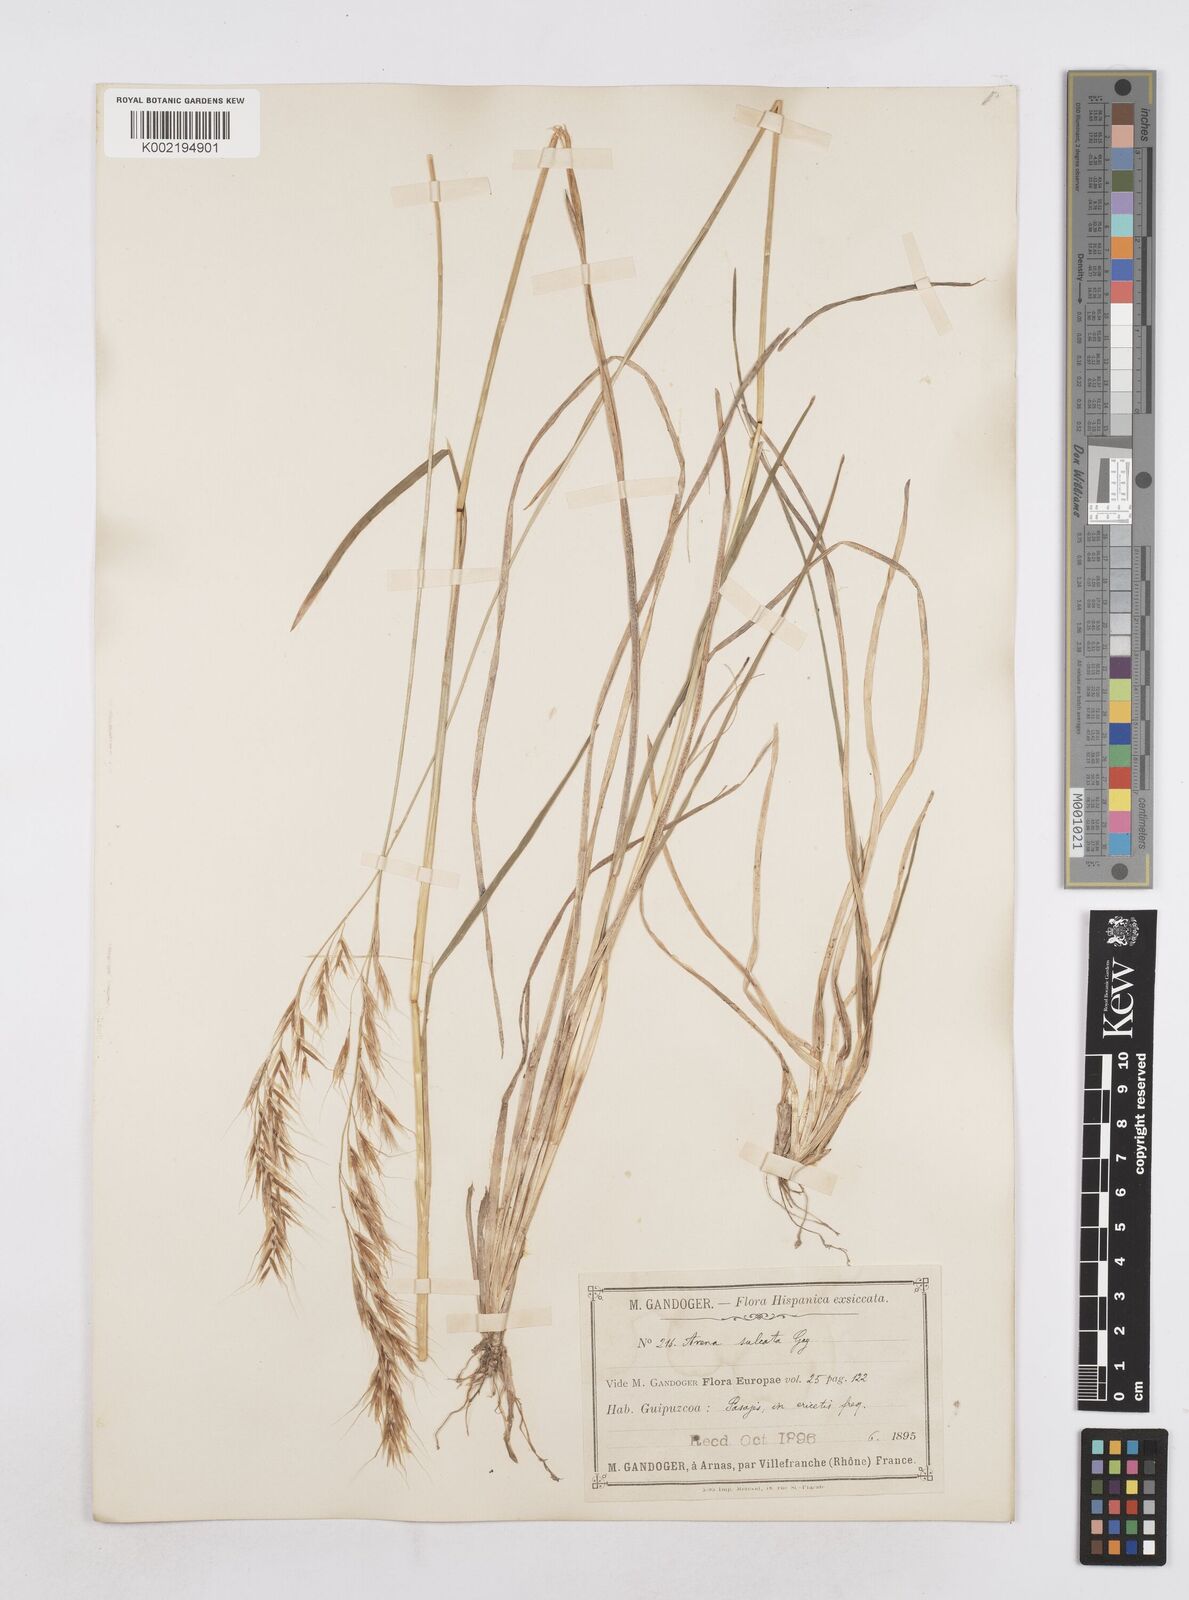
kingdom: Plantae
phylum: Tracheophyta
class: Liliopsida
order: Poales
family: Poaceae
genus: Helictotrichon
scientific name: Helictotrichon
